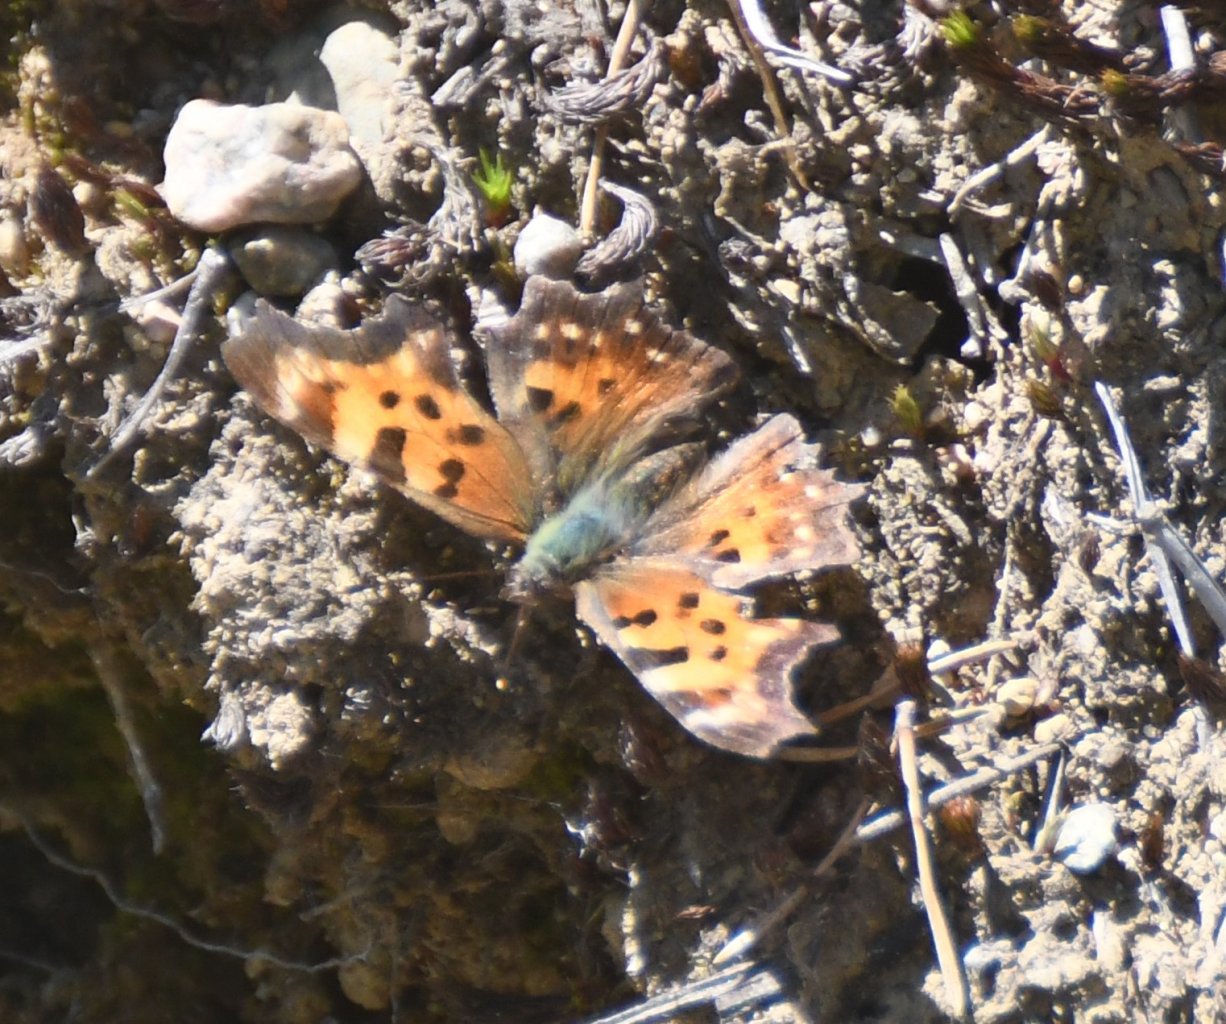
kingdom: Animalia
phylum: Arthropoda
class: Insecta
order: Lepidoptera
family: Nymphalidae
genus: Polygonia
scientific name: Polygonia faunus
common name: Green Comma
